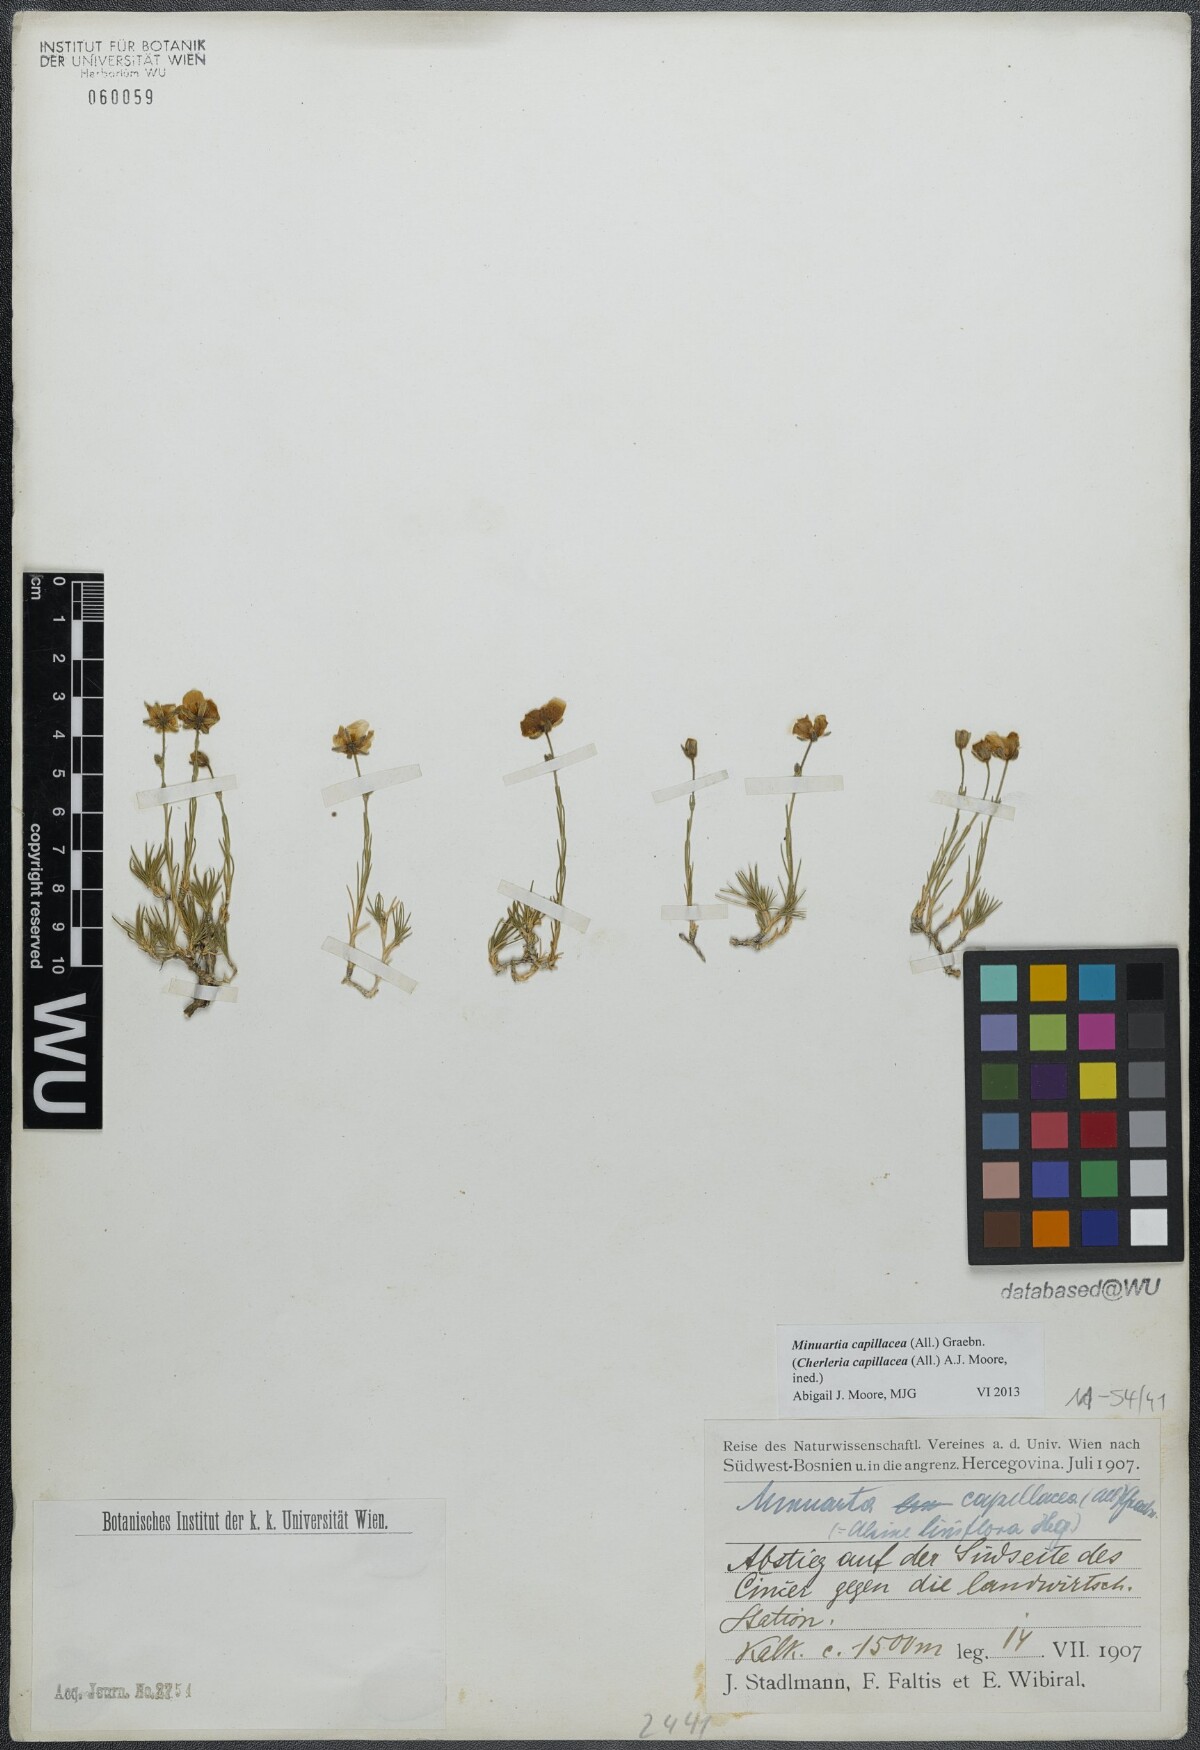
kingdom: Plantae
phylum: Tracheophyta
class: Magnoliopsida
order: Caryophyllales
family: Caryophyllaceae
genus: Cherleria
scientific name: Cherleria capillacea
